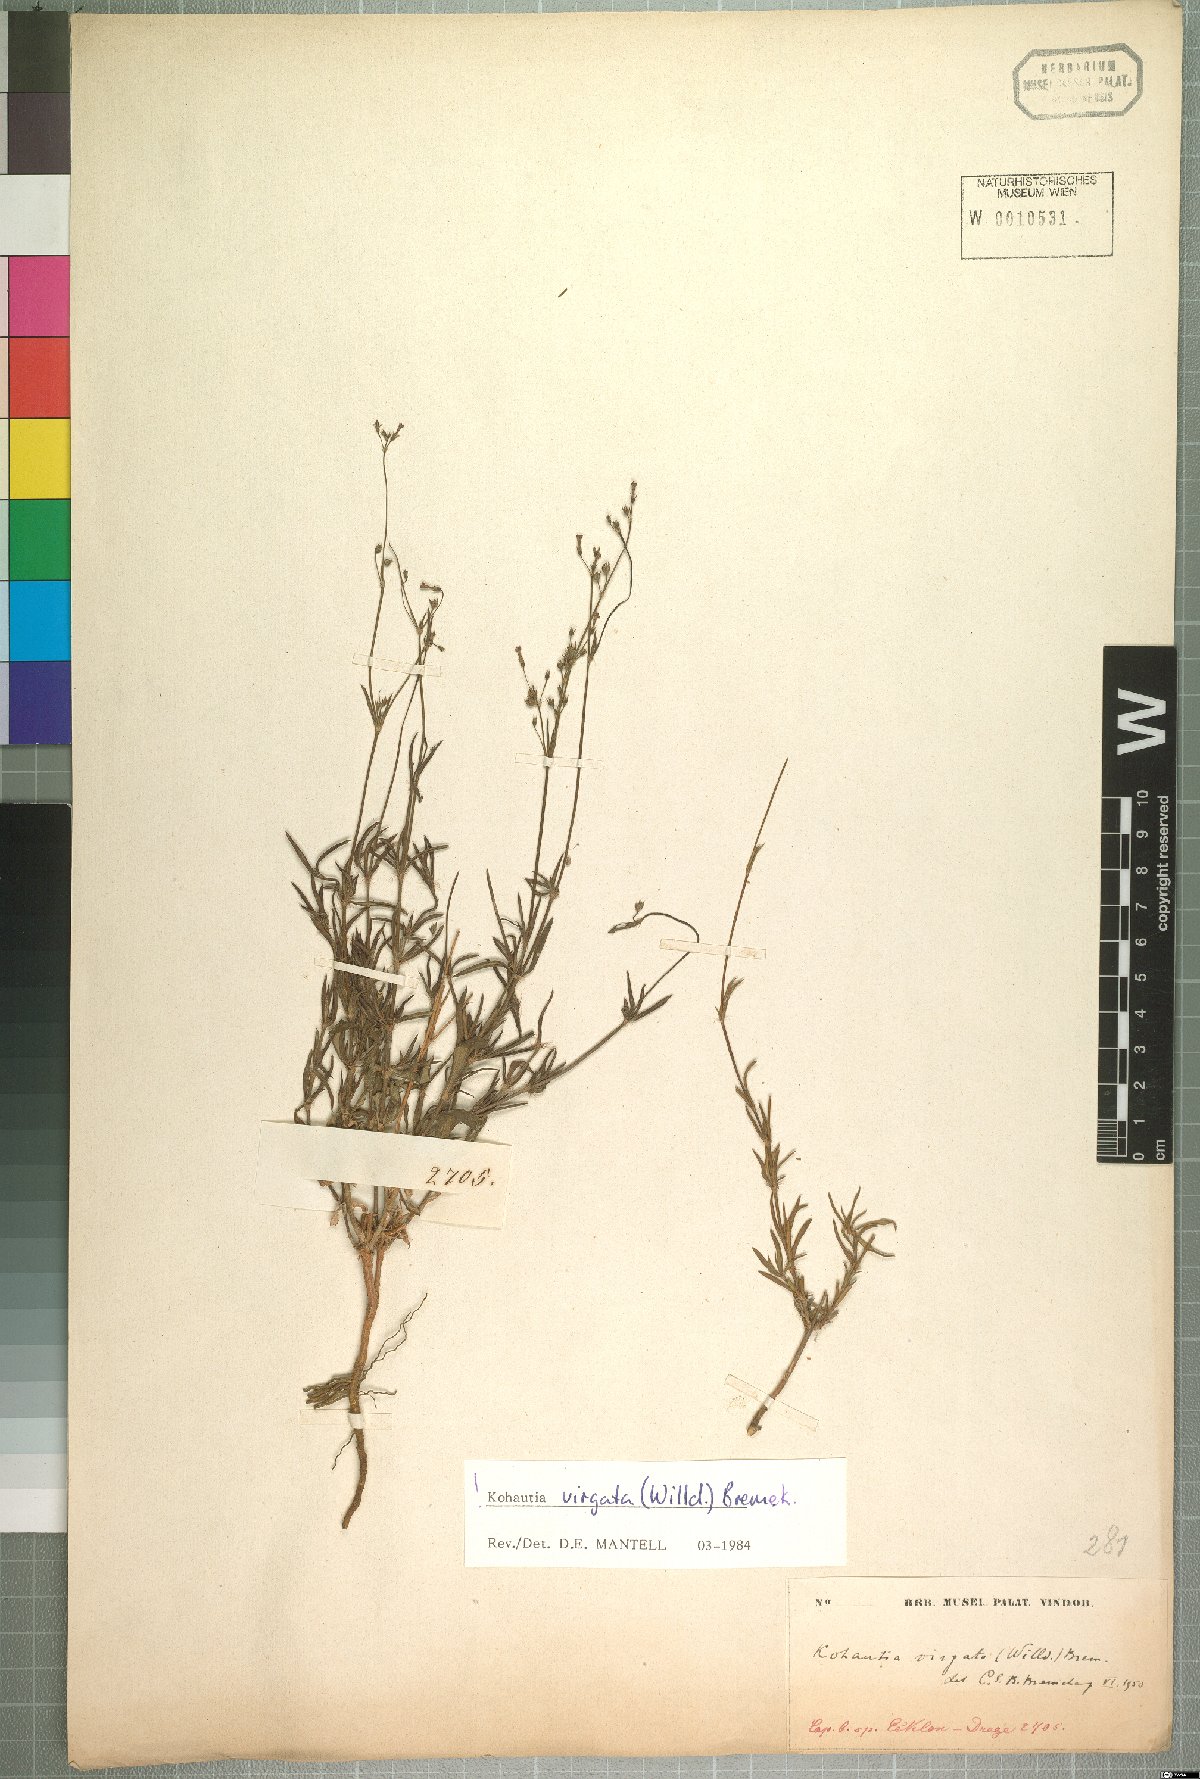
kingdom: Plantae
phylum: Tracheophyta
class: Magnoliopsida
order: Gentianales
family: Rubiaceae
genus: Cordylostigma
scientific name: Cordylostigma virgatum
